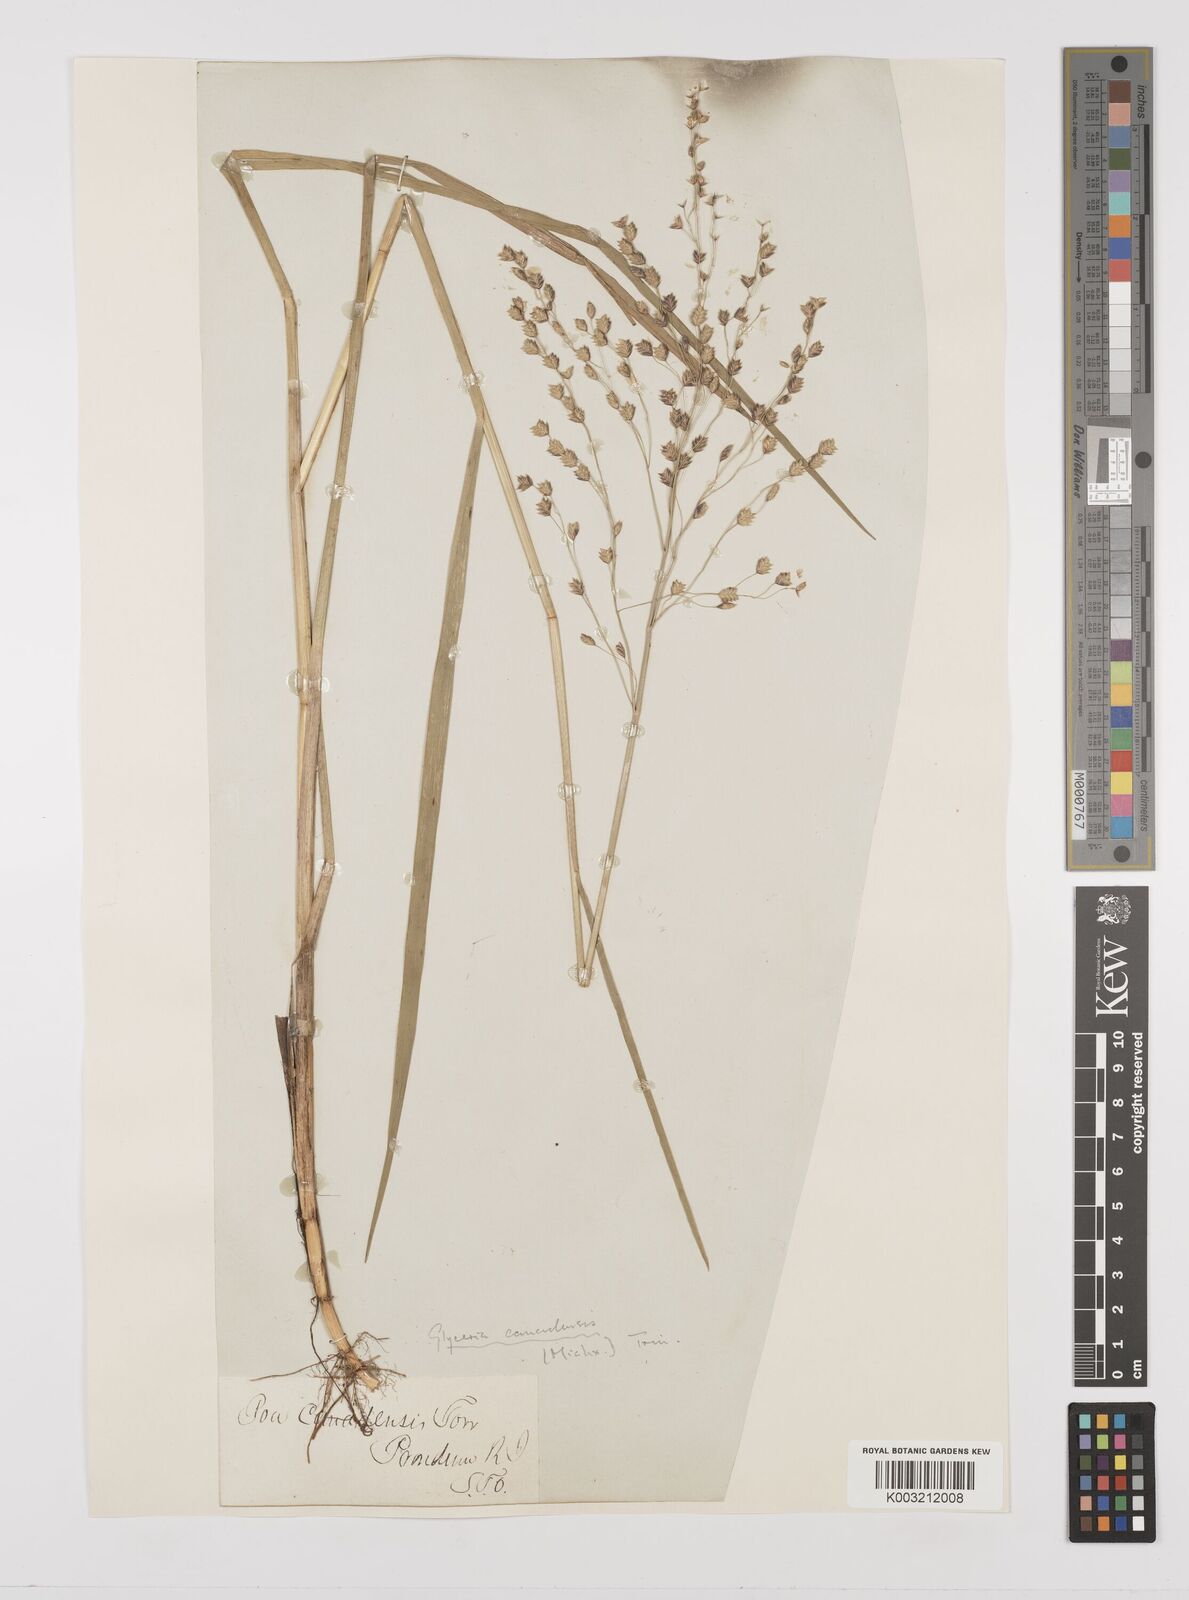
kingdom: Plantae
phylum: Tracheophyta
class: Liliopsida
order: Poales
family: Poaceae
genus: Glyceria
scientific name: Glyceria canadensis
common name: Canada mannagrass
